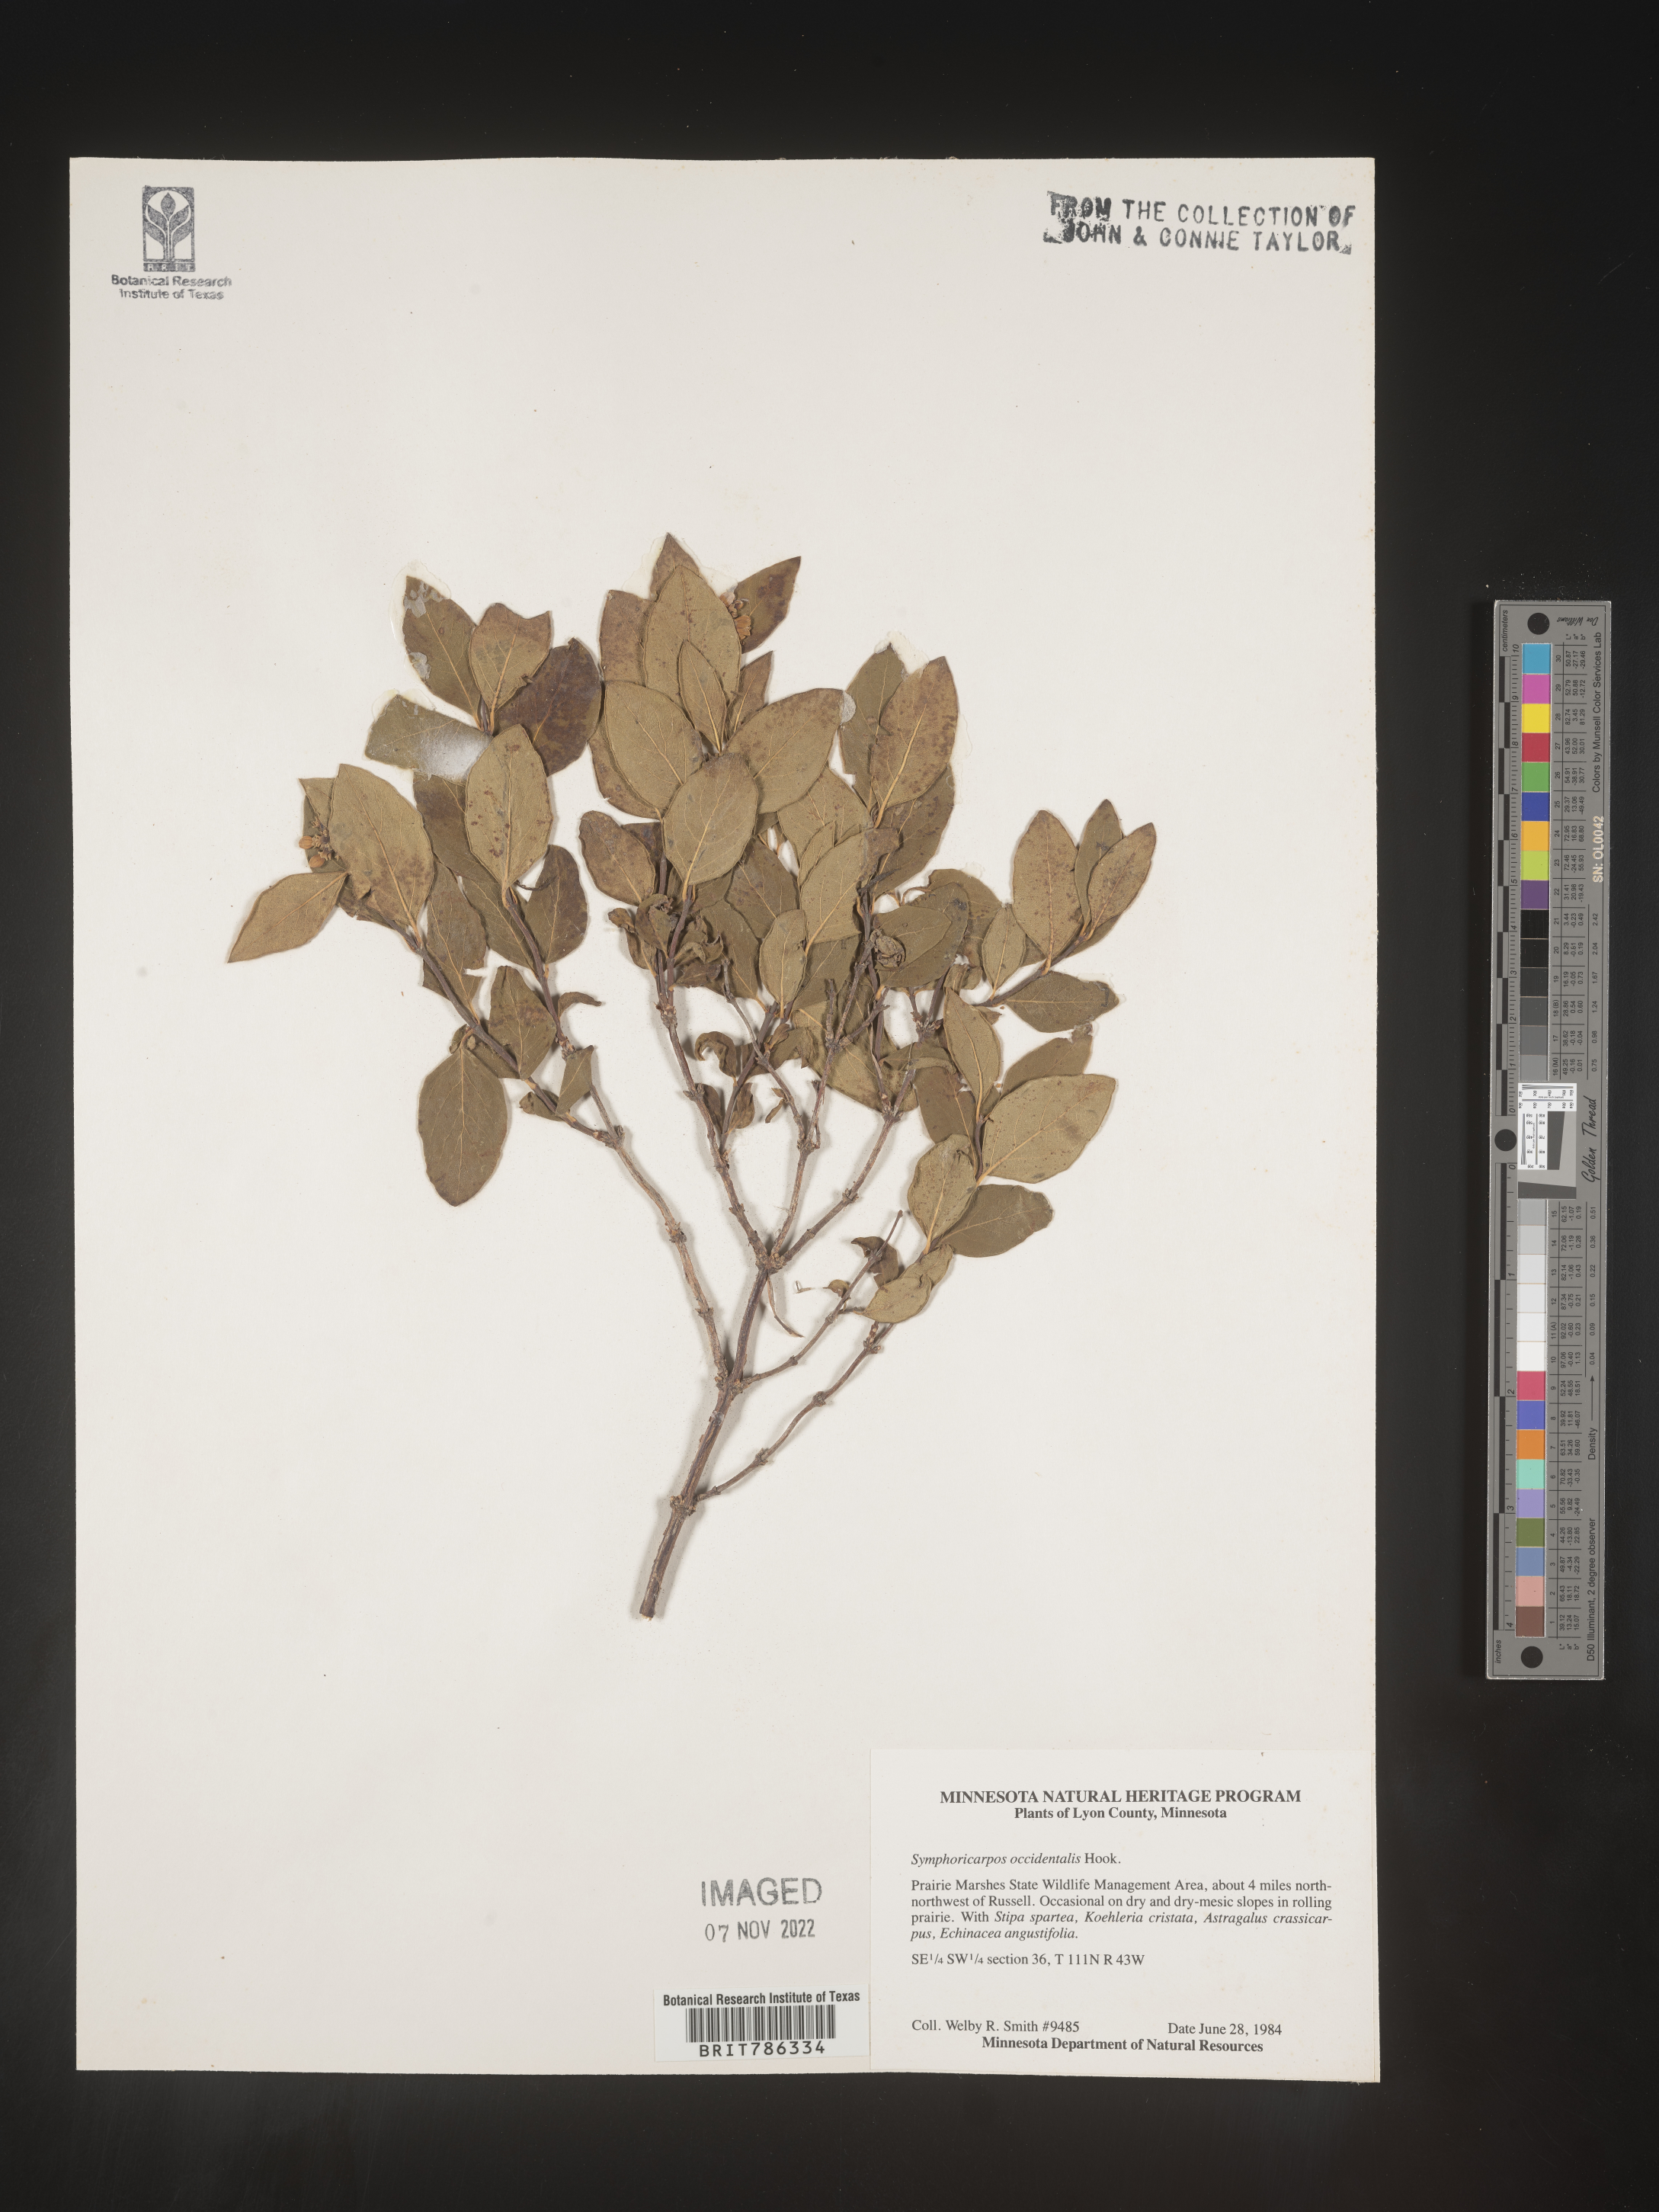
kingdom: Plantae
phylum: Tracheophyta
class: Magnoliopsida
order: Dipsacales
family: Caprifoliaceae
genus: Symphoricarpos
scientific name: Symphoricarpos occidentalis
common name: Wolfberry
